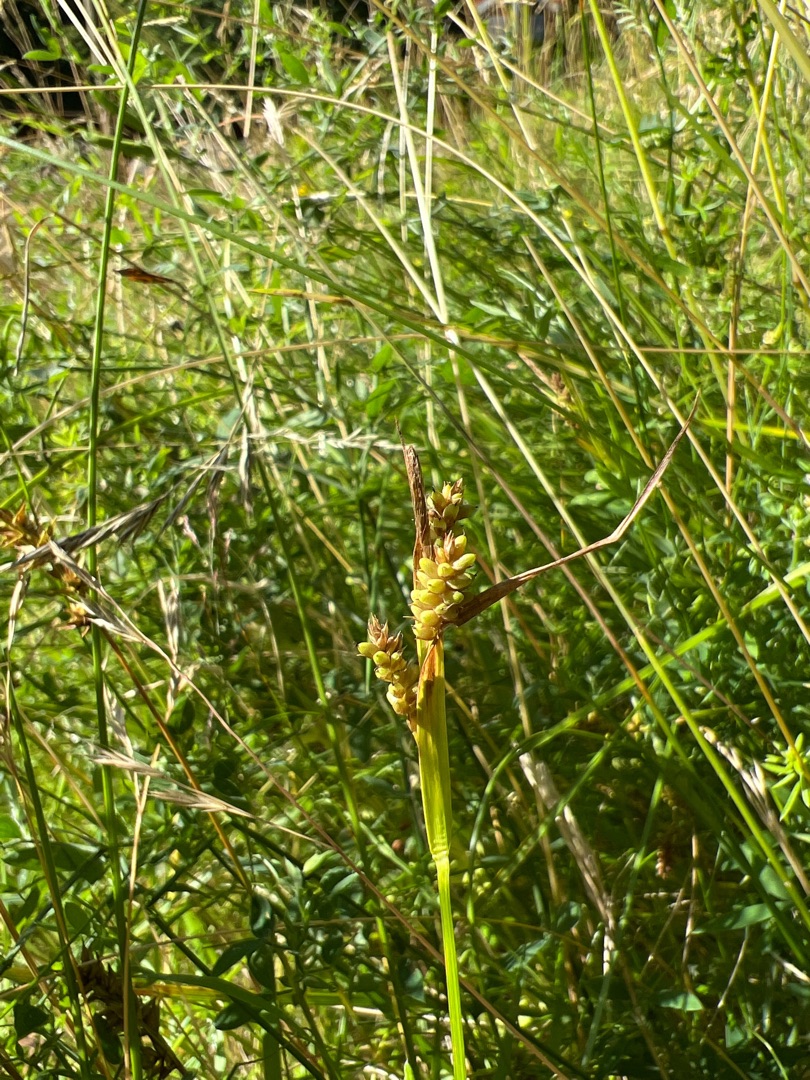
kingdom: Plantae
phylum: Tracheophyta
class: Liliopsida
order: Poales
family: Cyperaceae
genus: Carex
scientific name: Carex pallescens
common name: Bleg star
